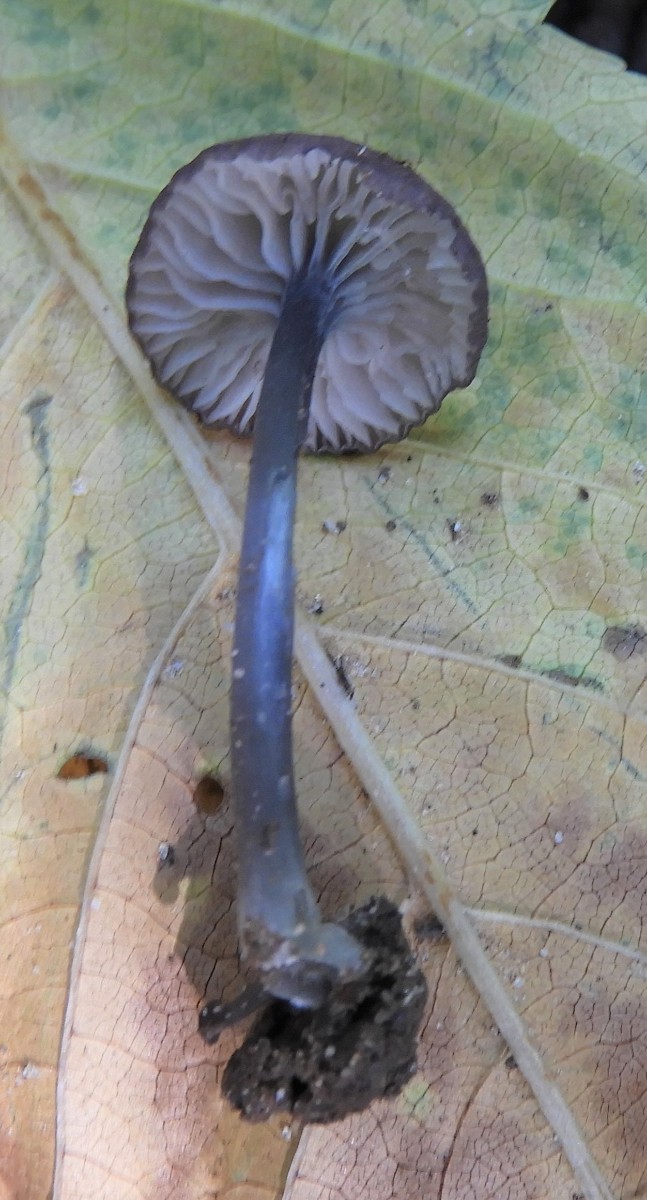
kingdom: Fungi
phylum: Basidiomycota
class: Agaricomycetes
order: Agaricales
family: Entolomataceae
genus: Entoloma
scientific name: Entoloma
